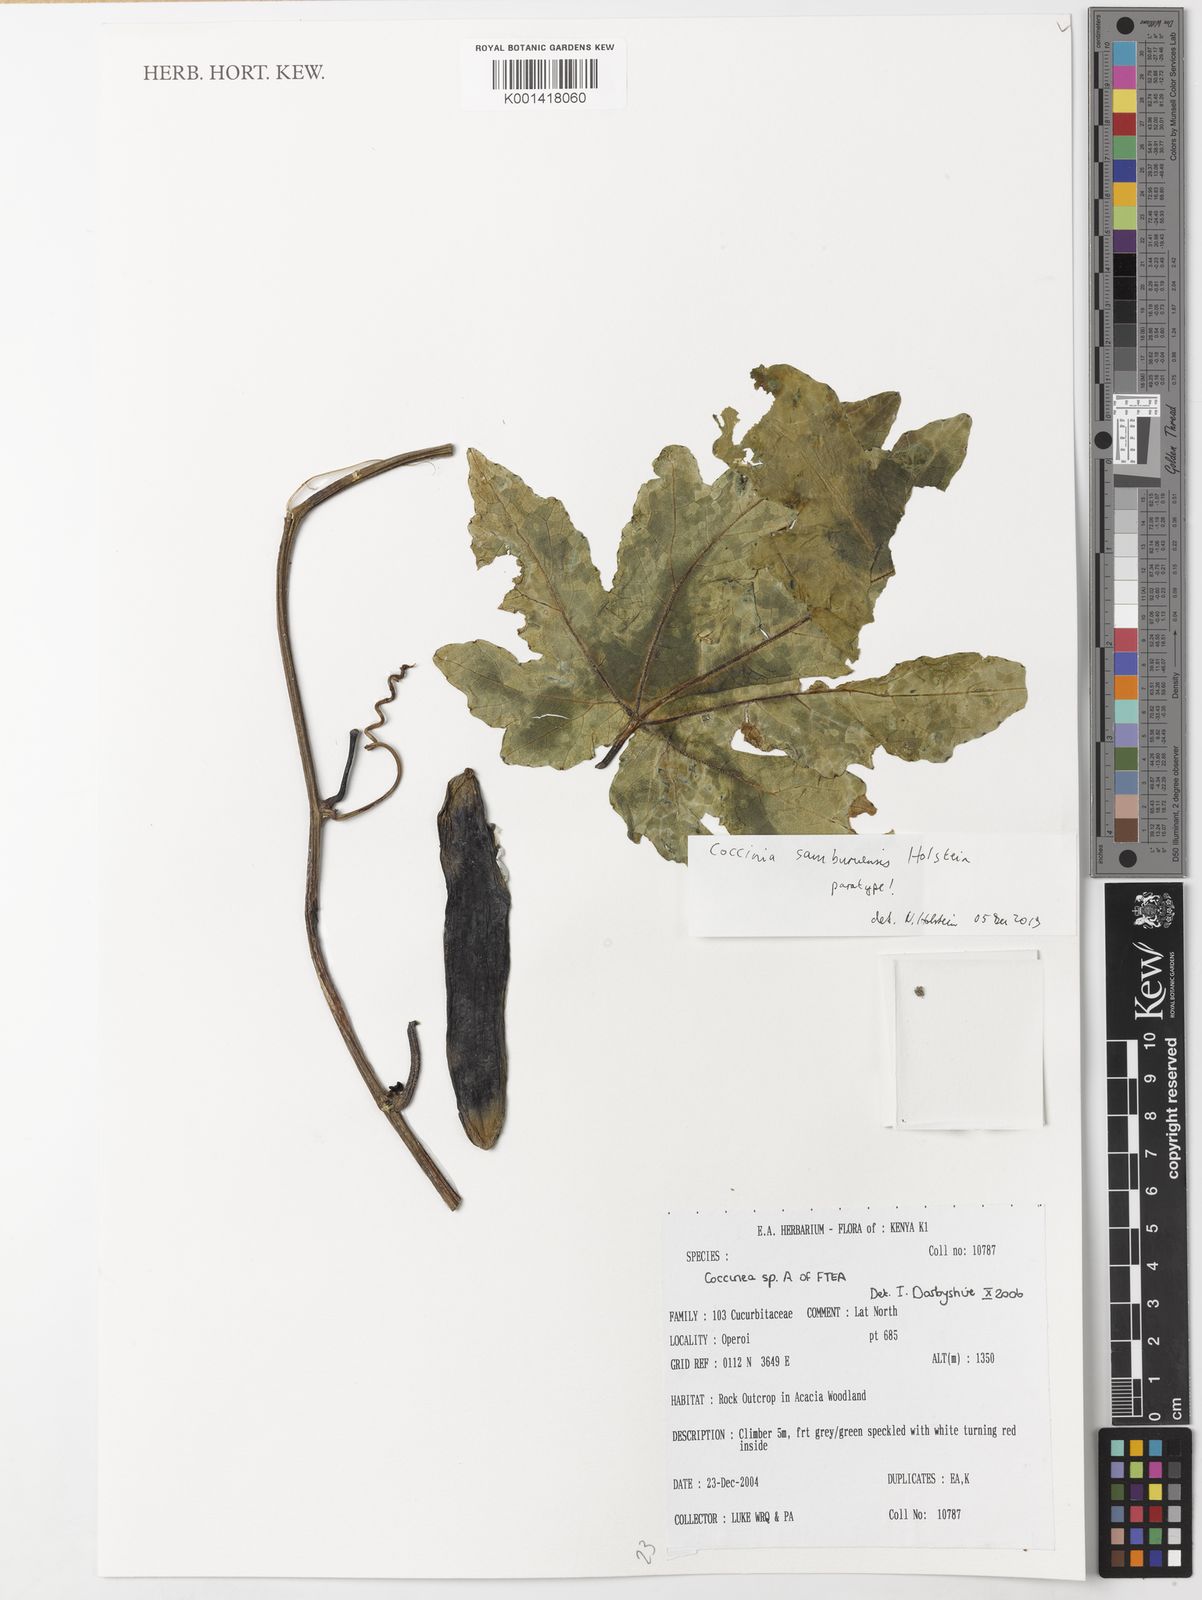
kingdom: Plantae
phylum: Tracheophyta
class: Magnoliopsida
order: Cucurbitales
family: Cucurbitaceae
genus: Coccinia
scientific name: Coccinia samburuensis
